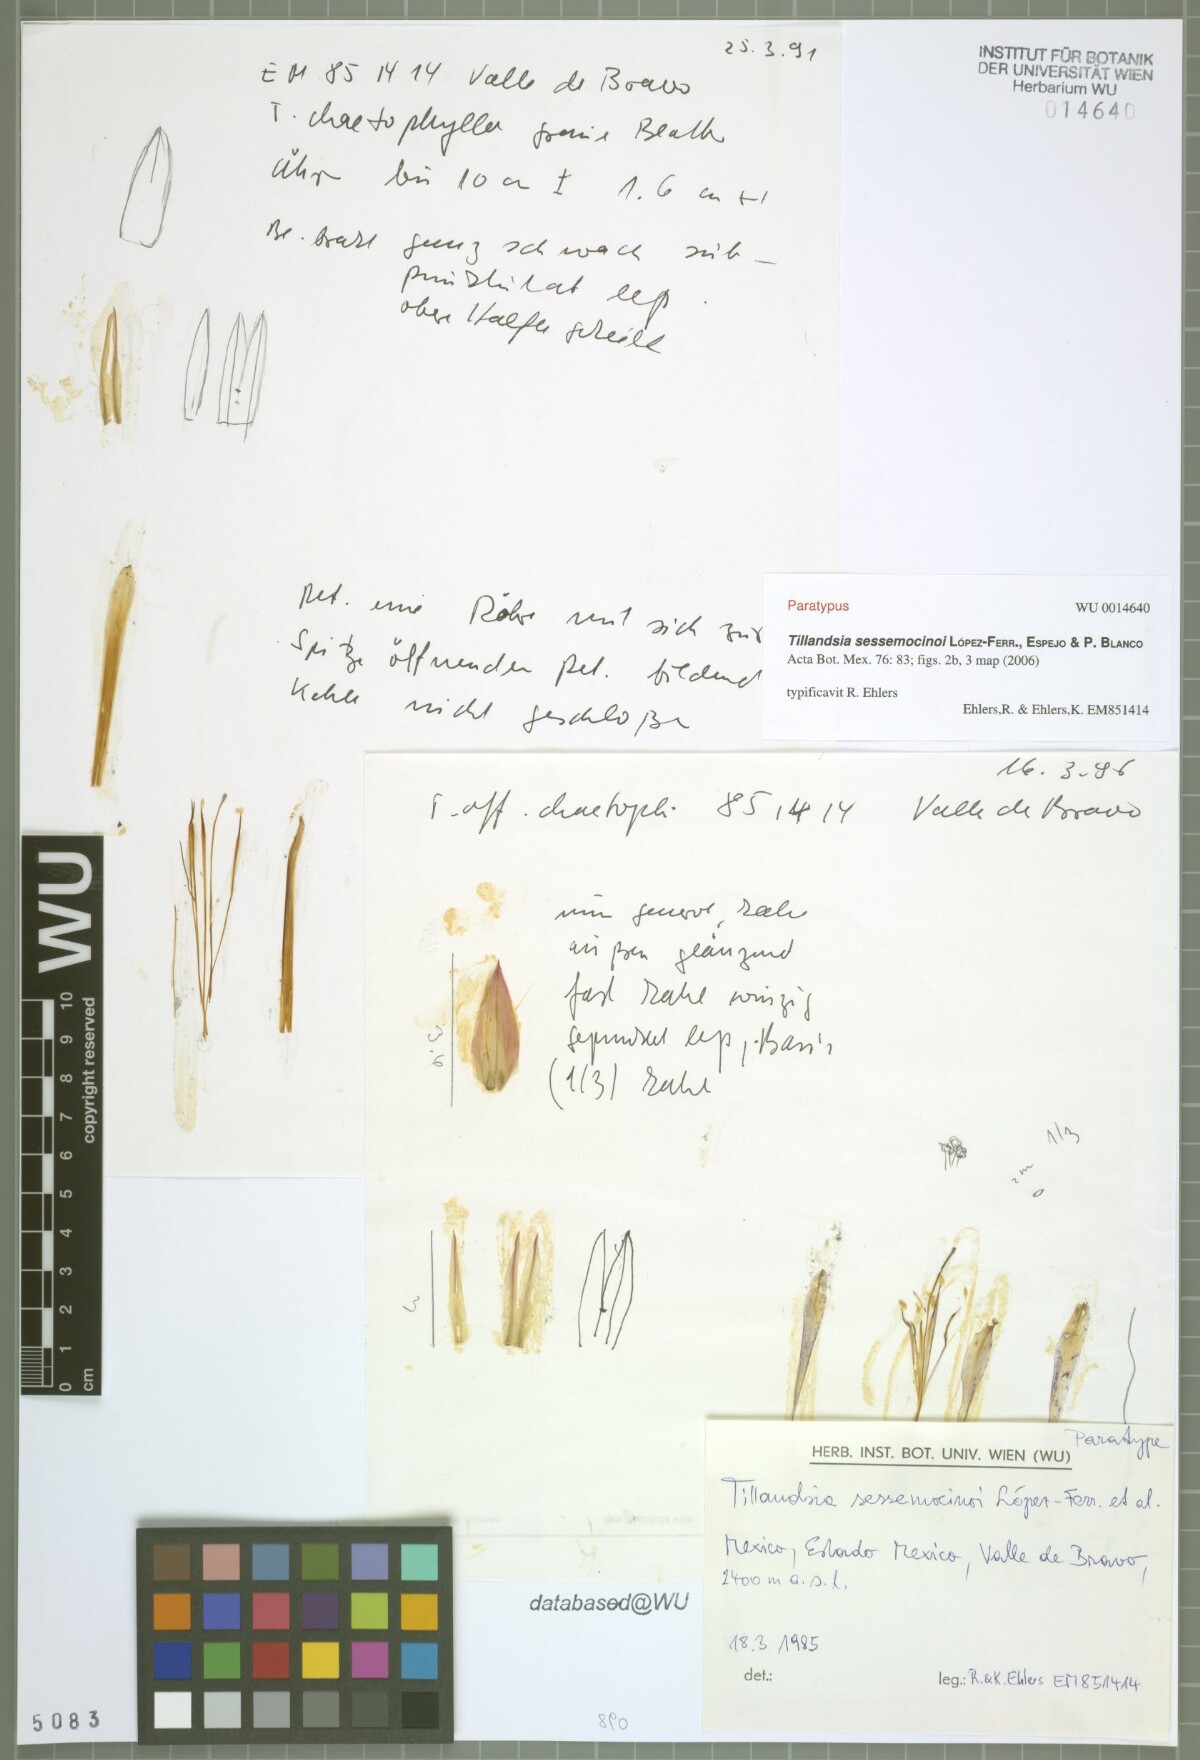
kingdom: Plantae
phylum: Tracheophyta
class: Liliopsida
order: Poales
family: Bromeliaceae
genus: Tillandsia
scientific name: Tillandsia sessemocinoi
